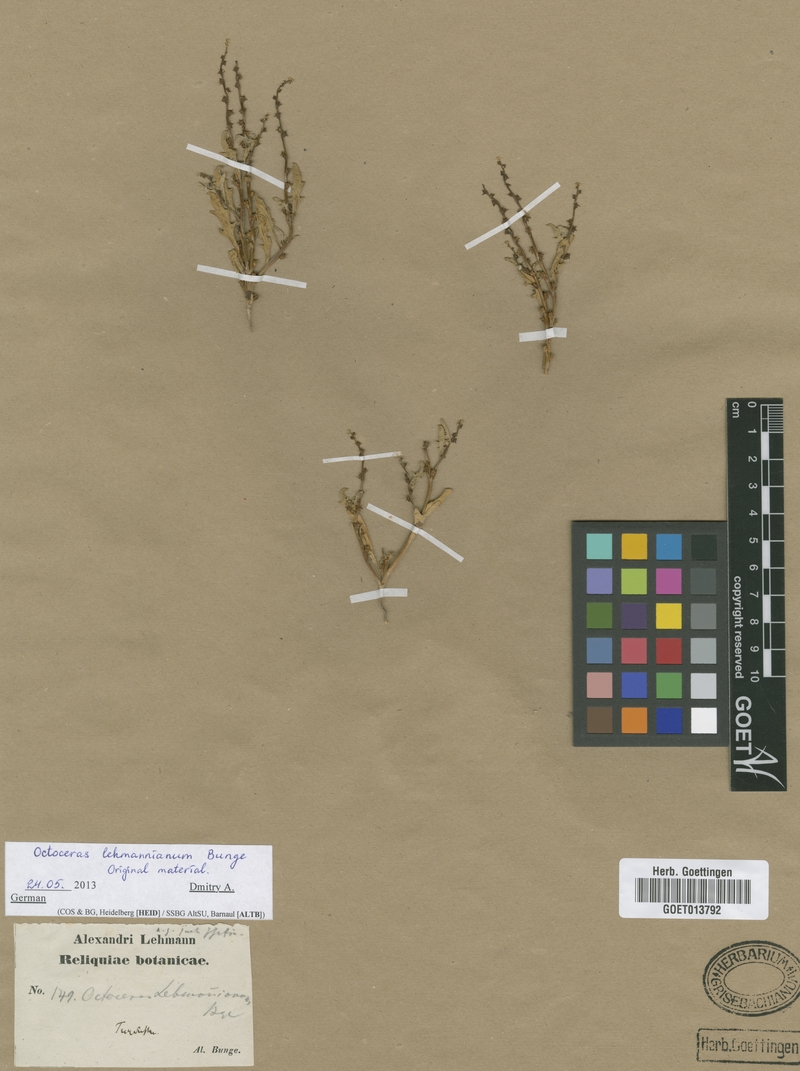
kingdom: Plantae
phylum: Tracheophyta
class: Magnoliopsida
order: Brassicales
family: Brassicaceae
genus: Octoceras
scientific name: Octoceras lehmannianum
